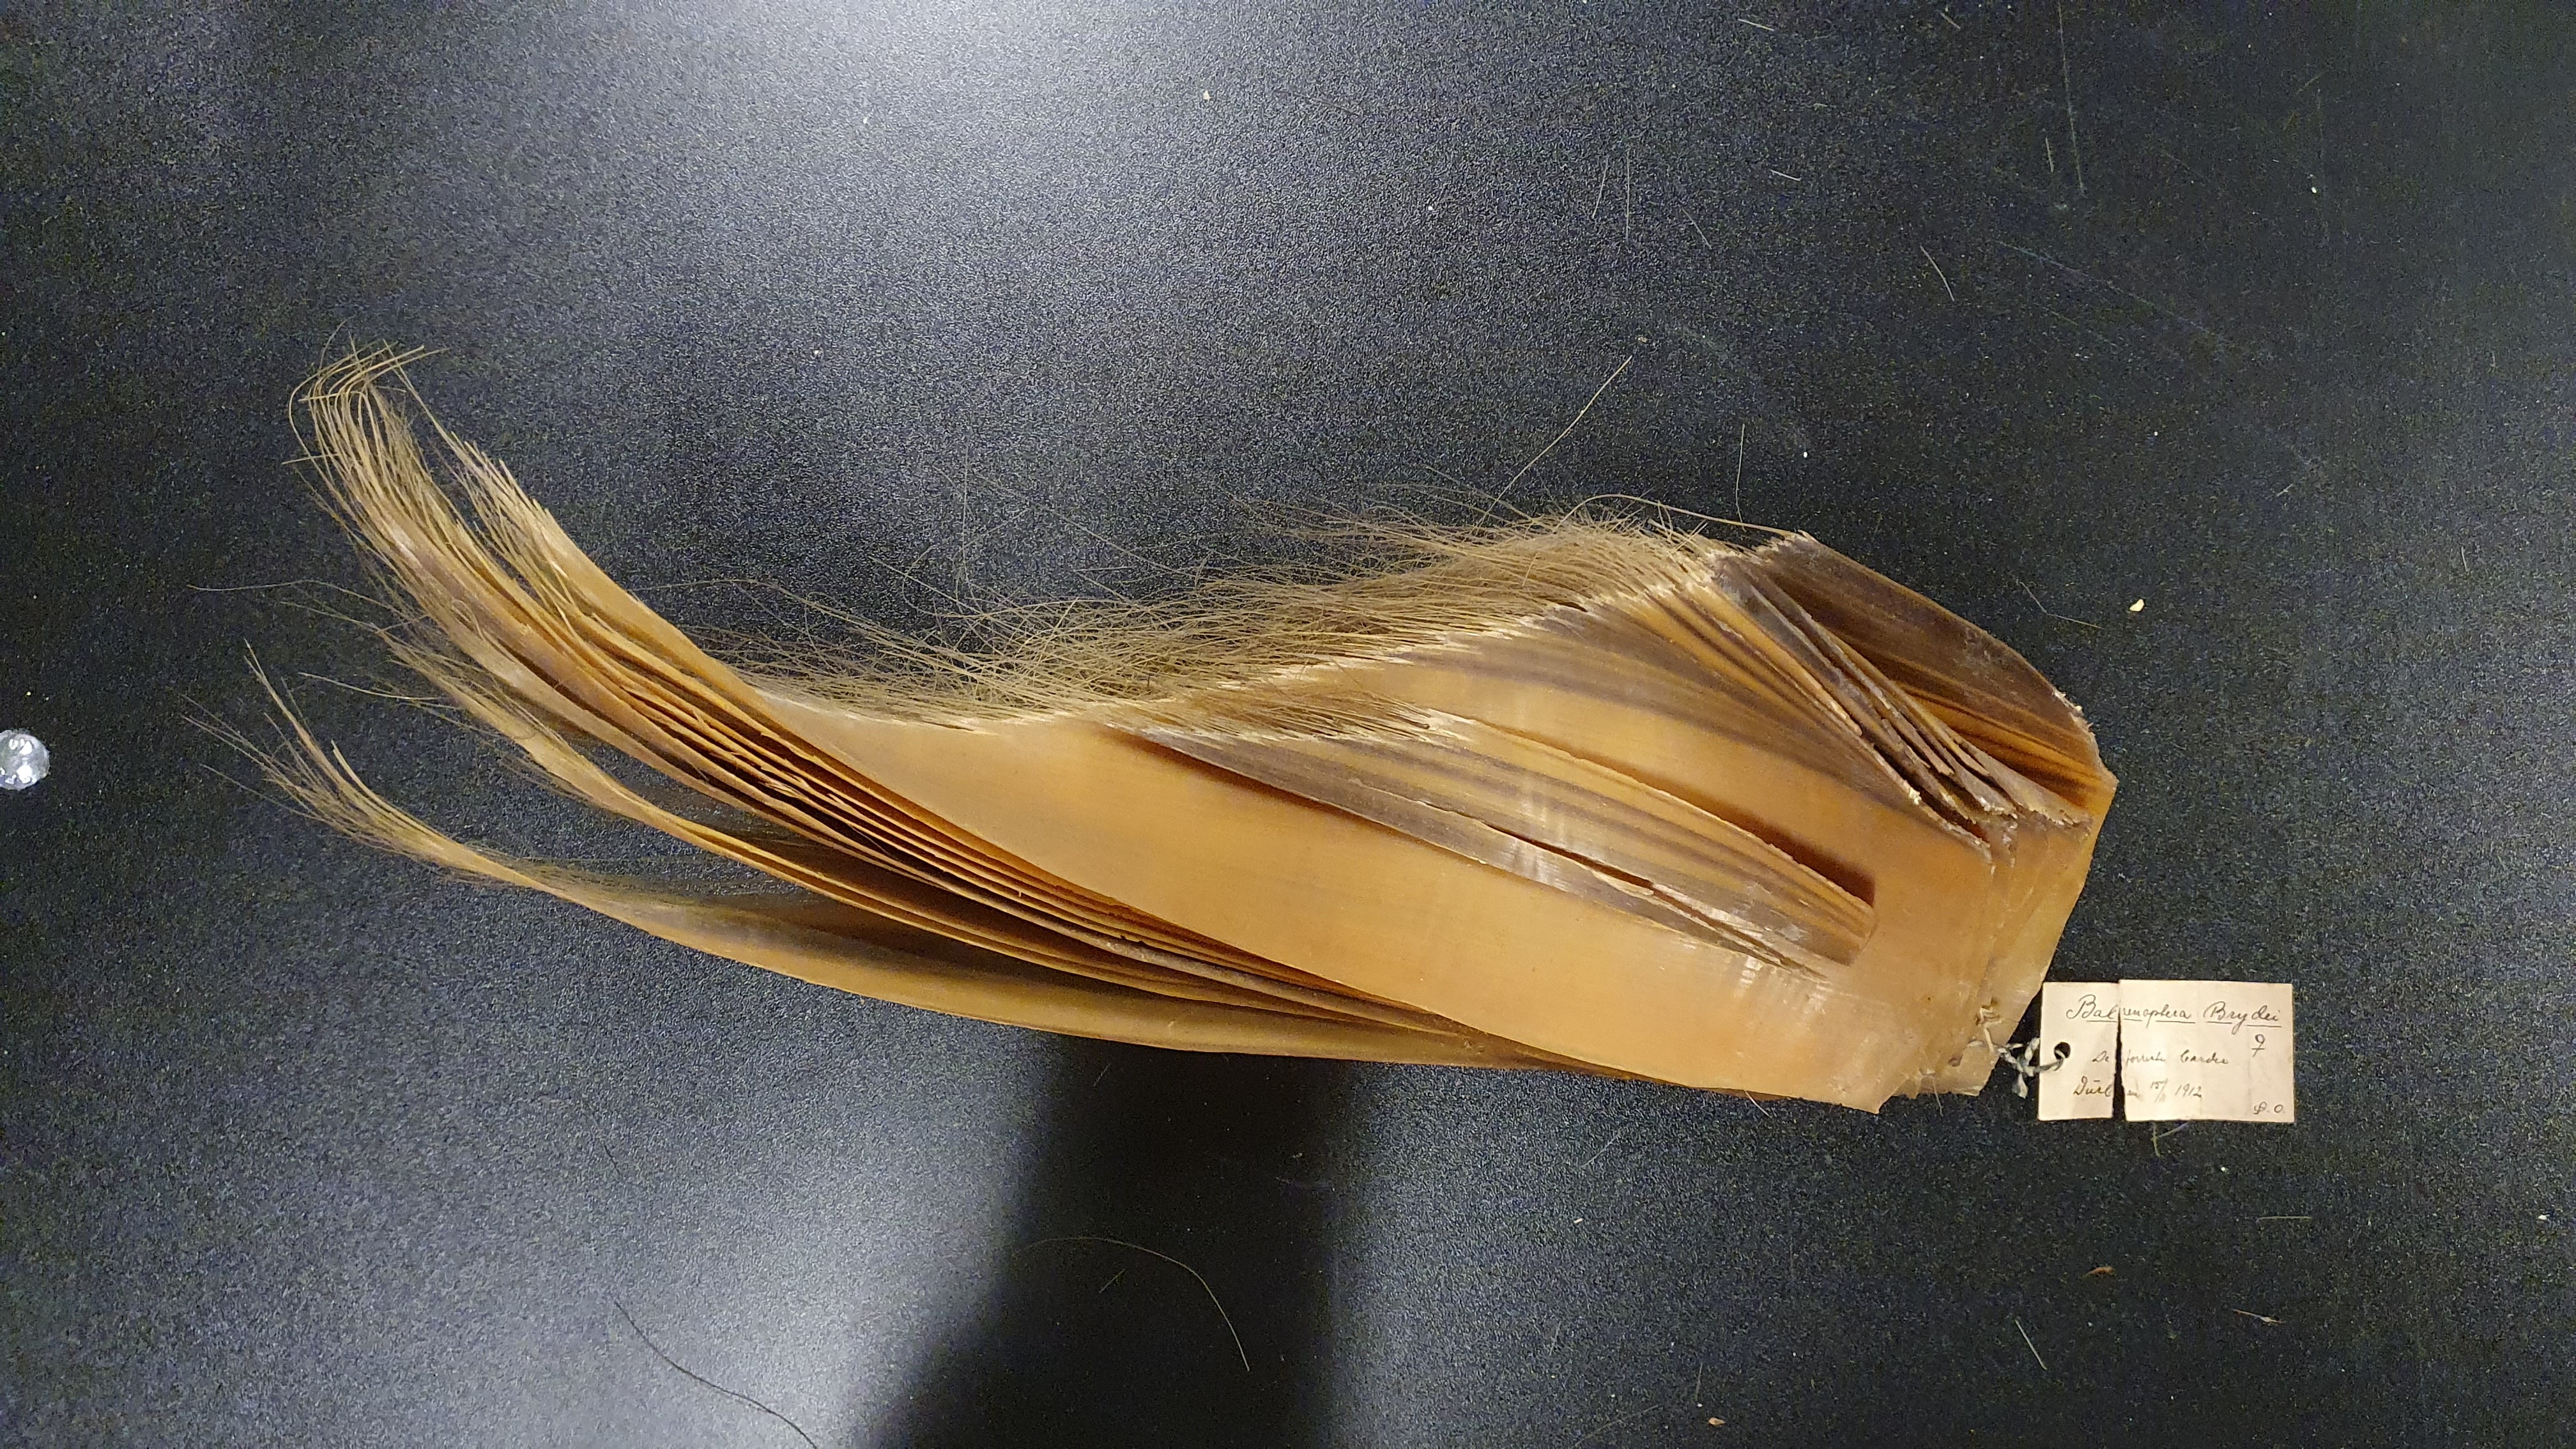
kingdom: Animalia
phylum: Chordata
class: Mammalia
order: Cetacea
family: Balaenopteridae
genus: Balaenoptera
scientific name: Balaenoptera edeni
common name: Bryde's whale
